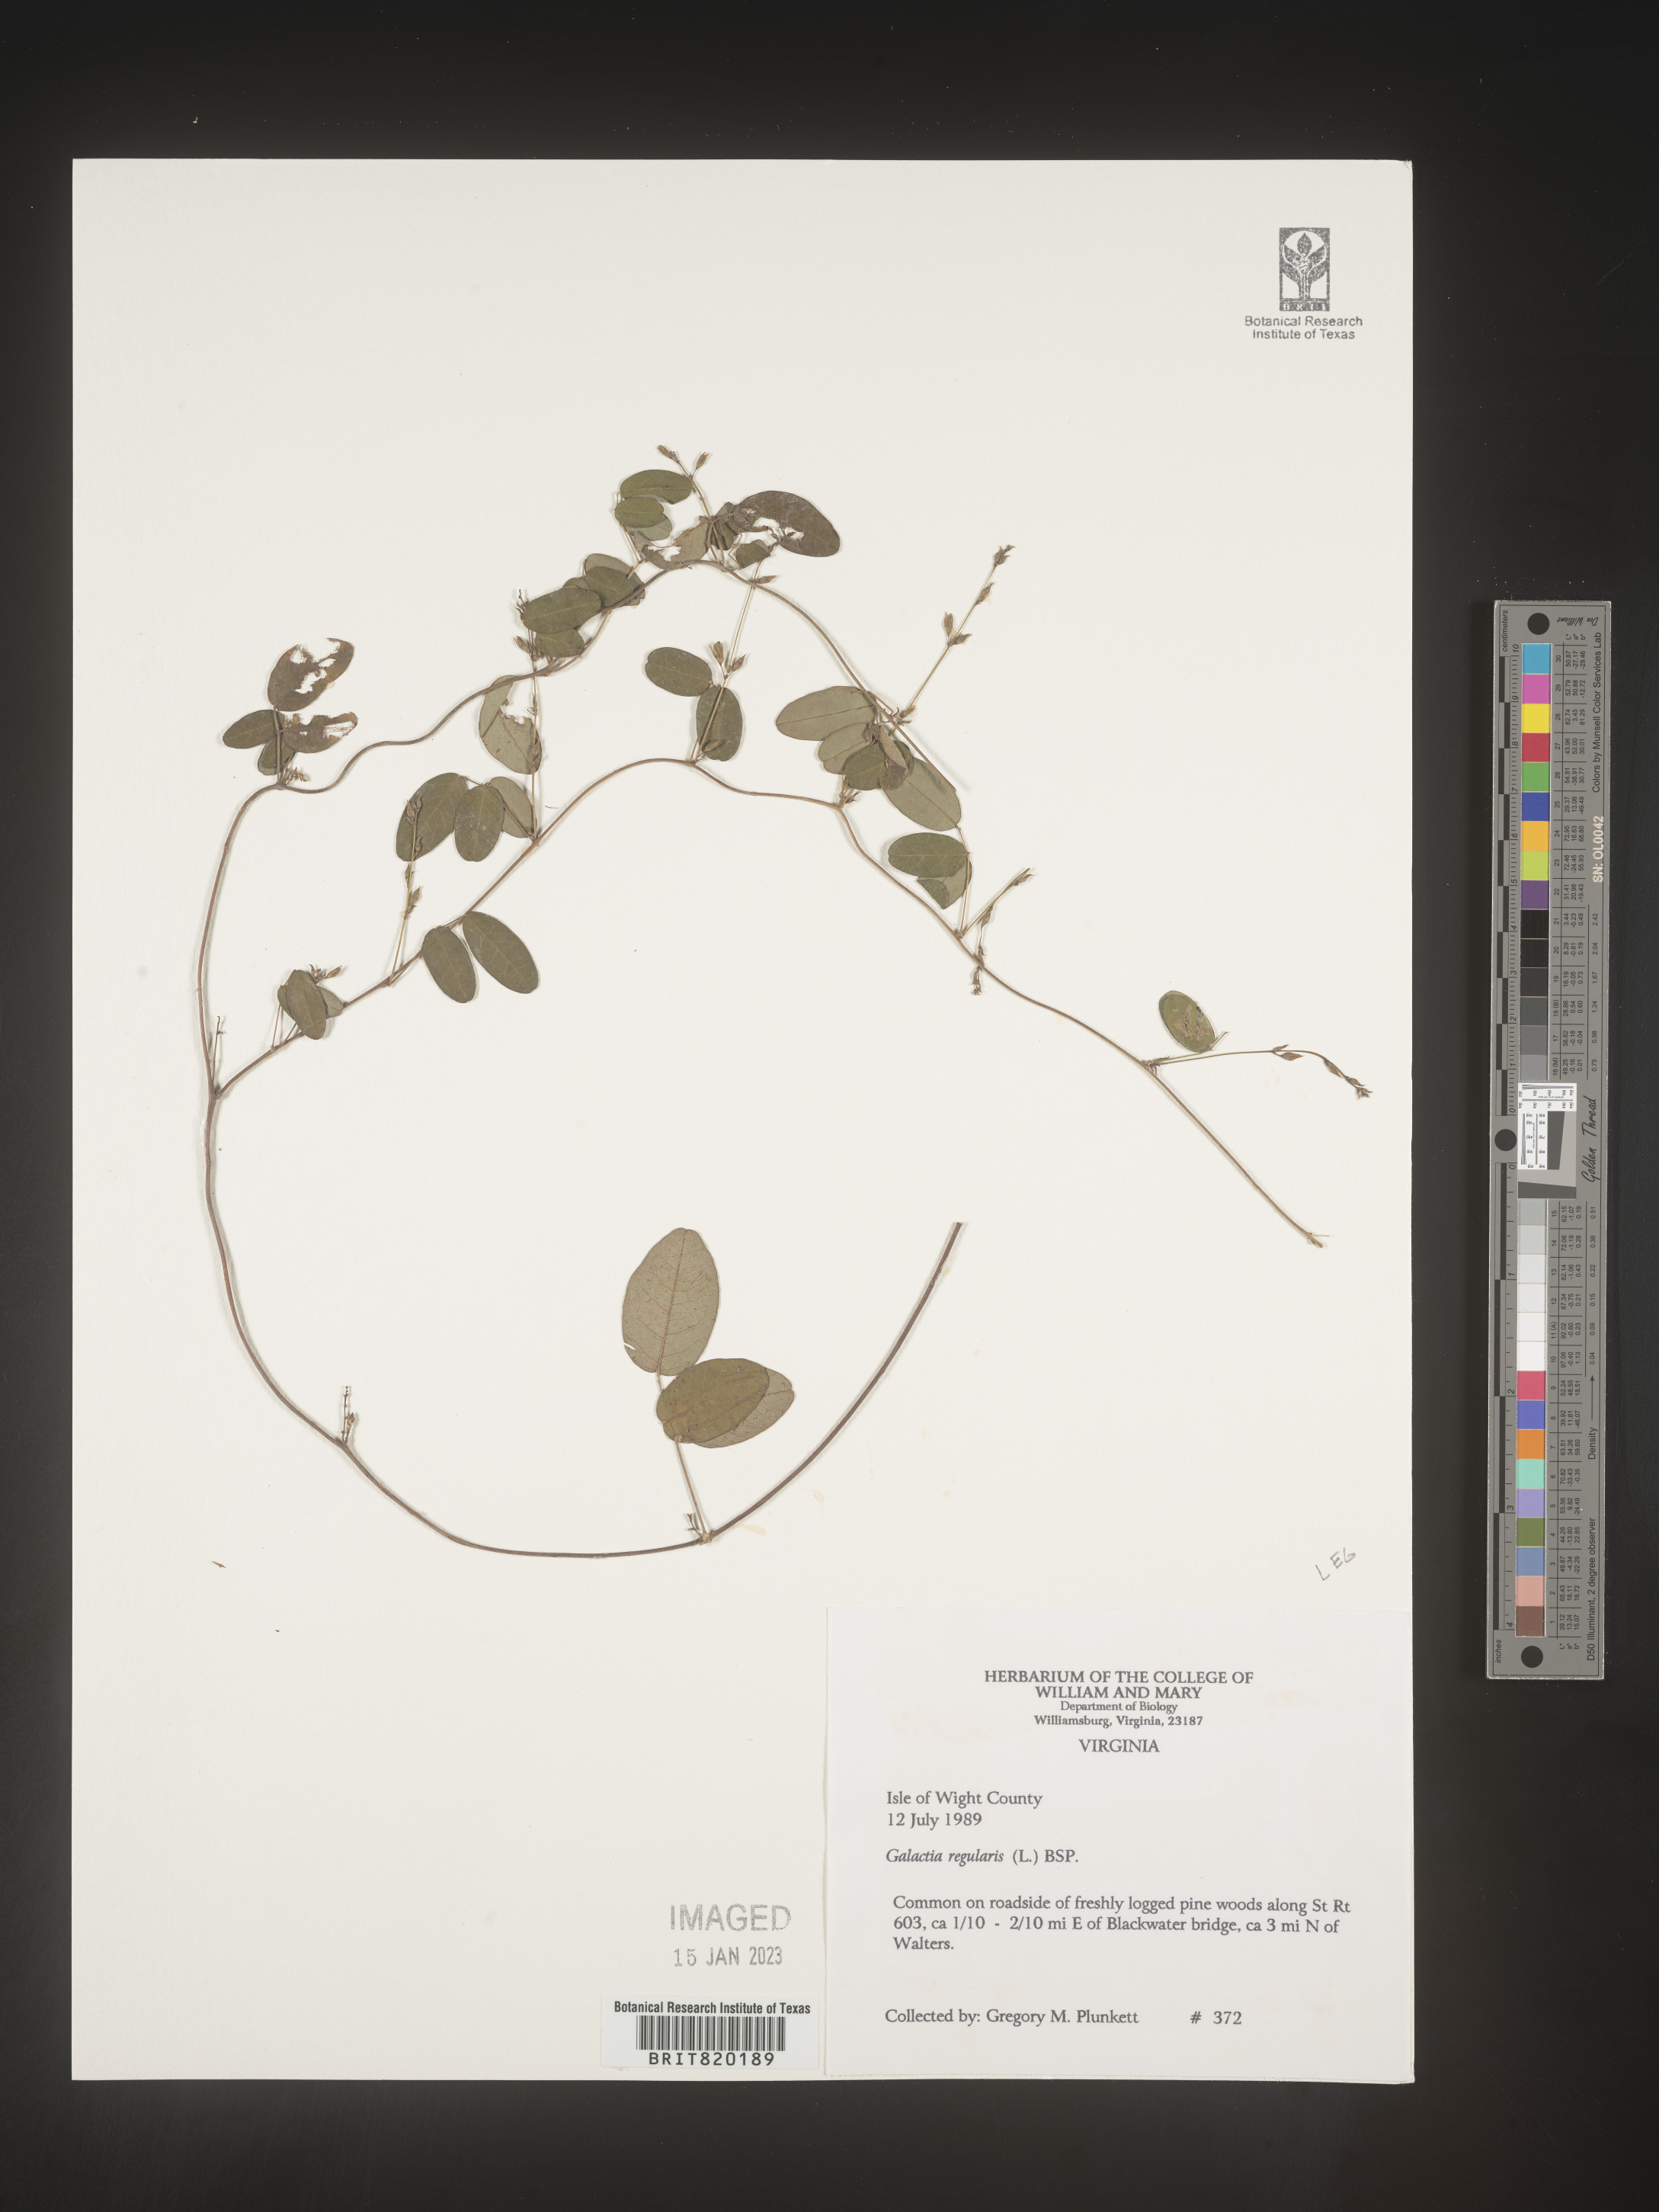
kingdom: Plantae
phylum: Tracheophyta
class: Magnoliopsida
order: Fabales
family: Fabaceae
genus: Galactia
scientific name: Galactia volubilis
